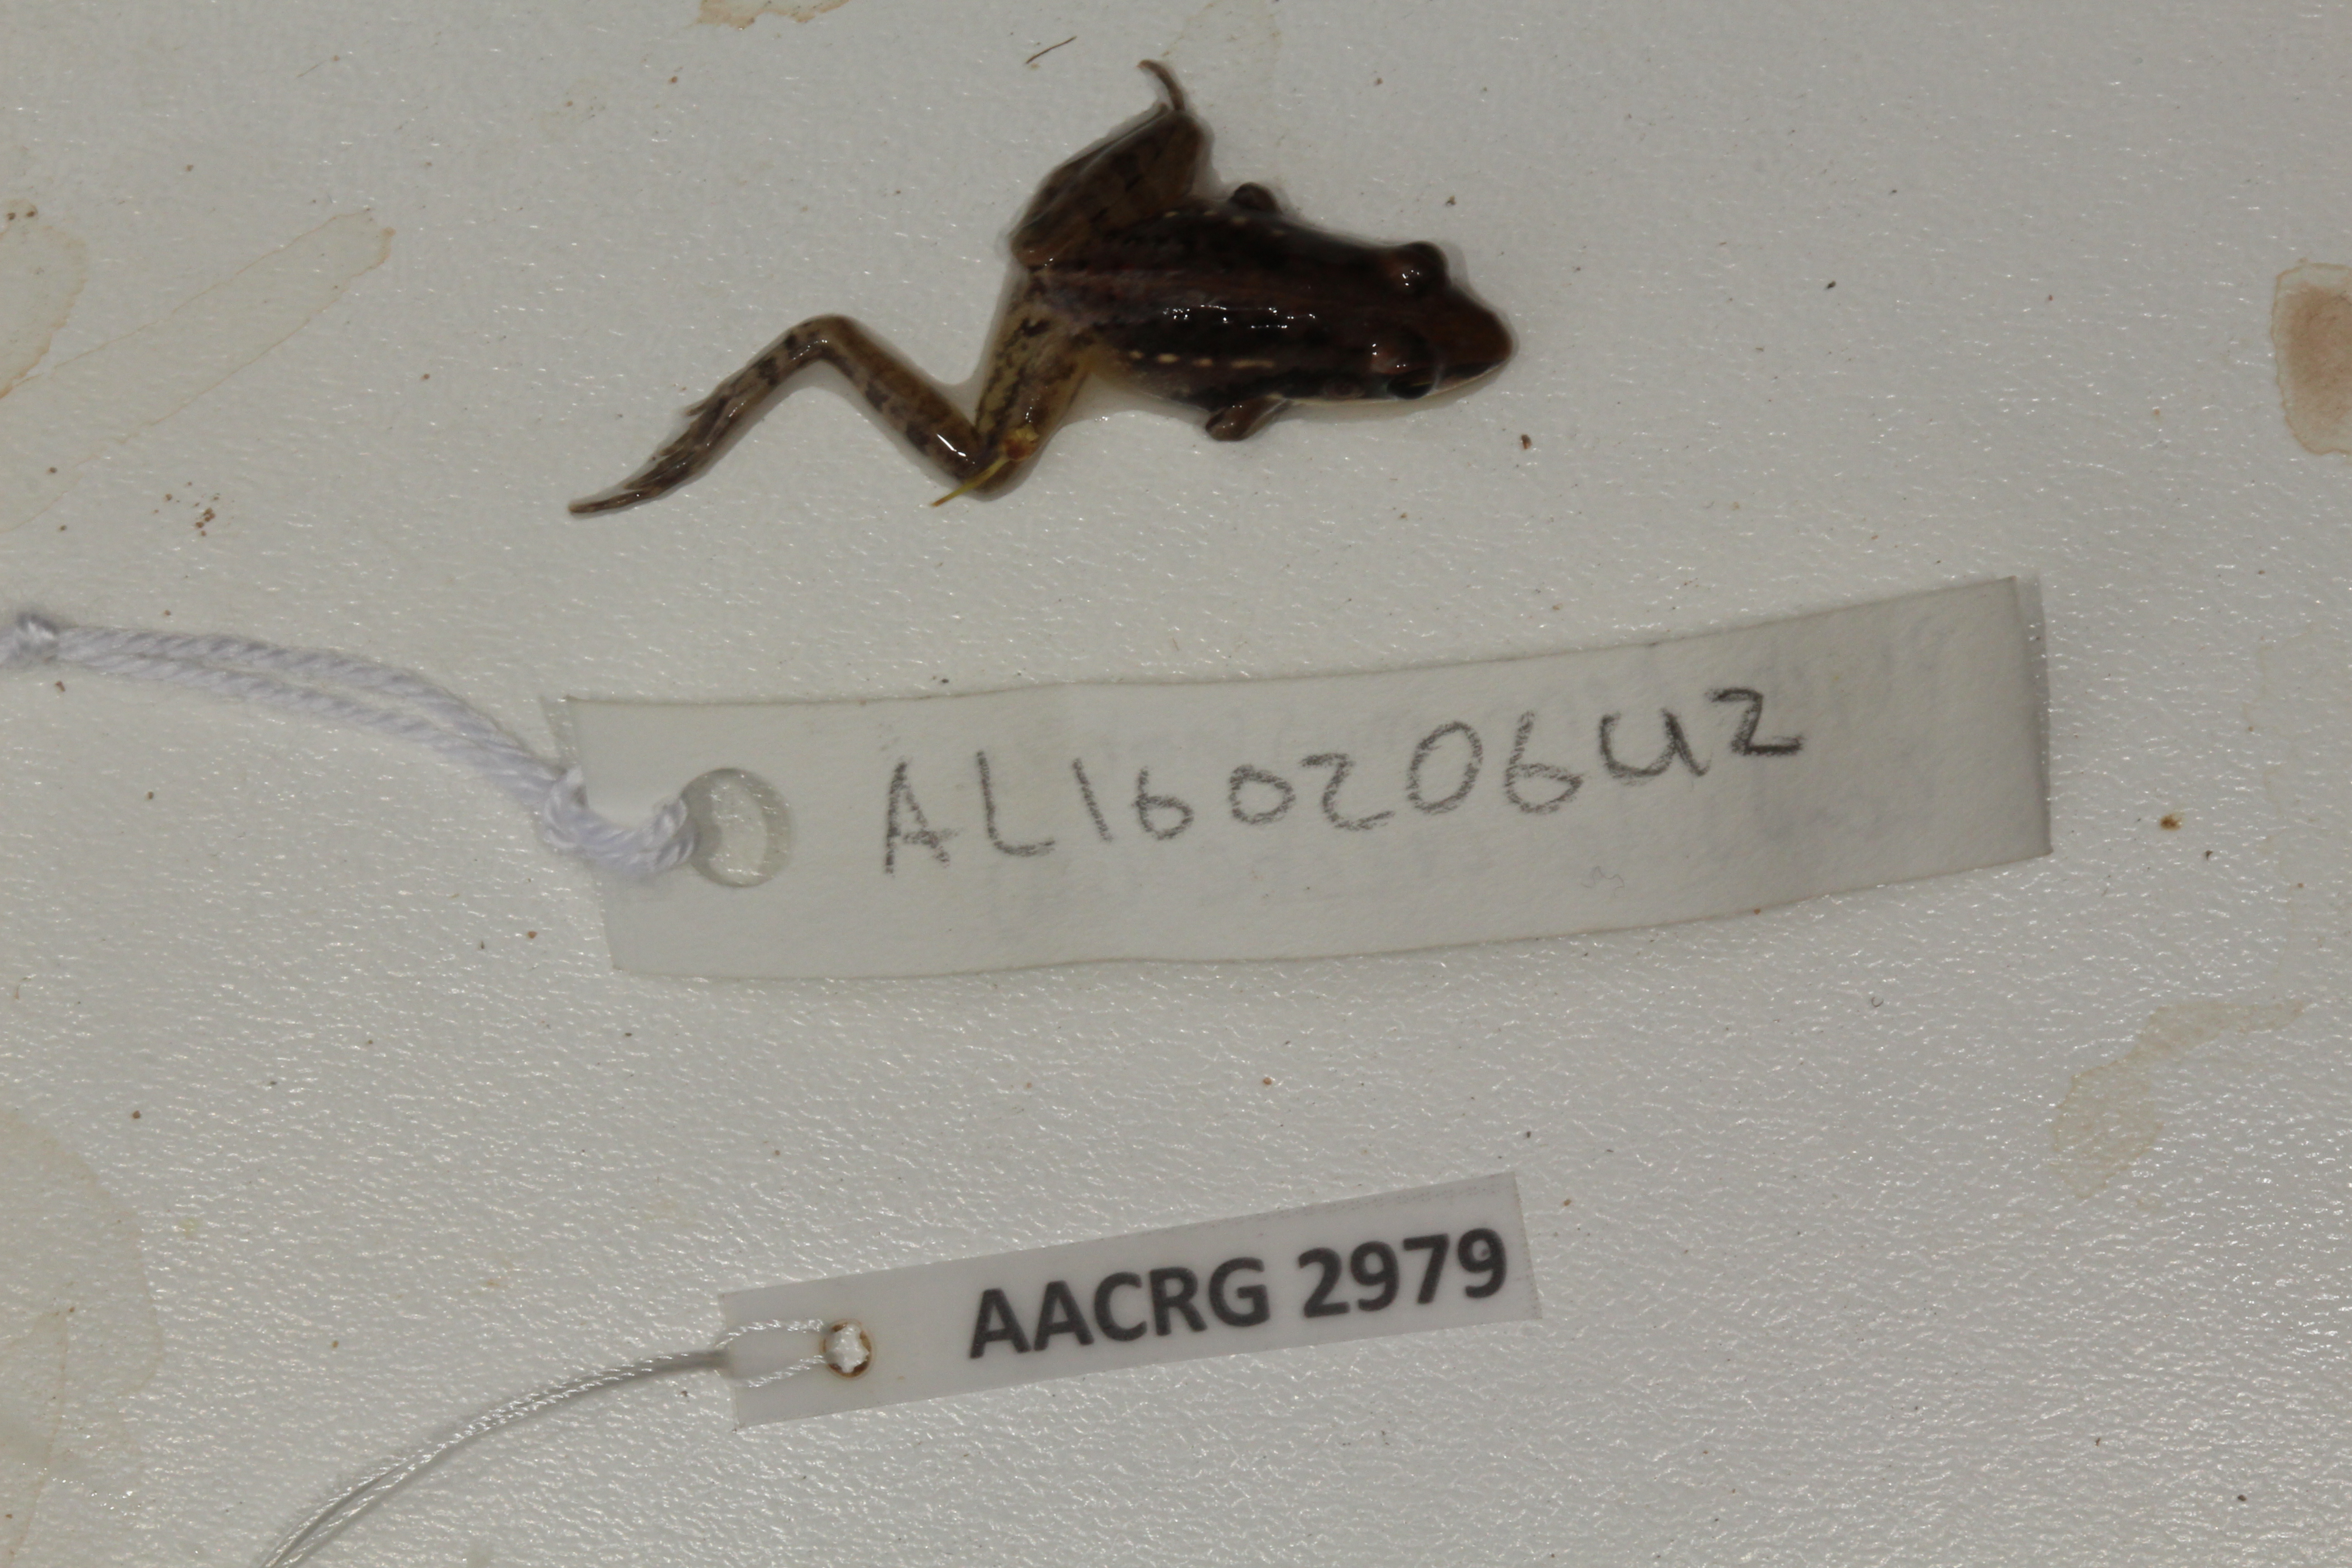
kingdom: Animalia
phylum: Chordata
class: Amphibia
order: Anura
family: Ptychadenidae
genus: Ptychadena
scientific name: Ptychadena mossambica
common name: Mozambique ridged frog
